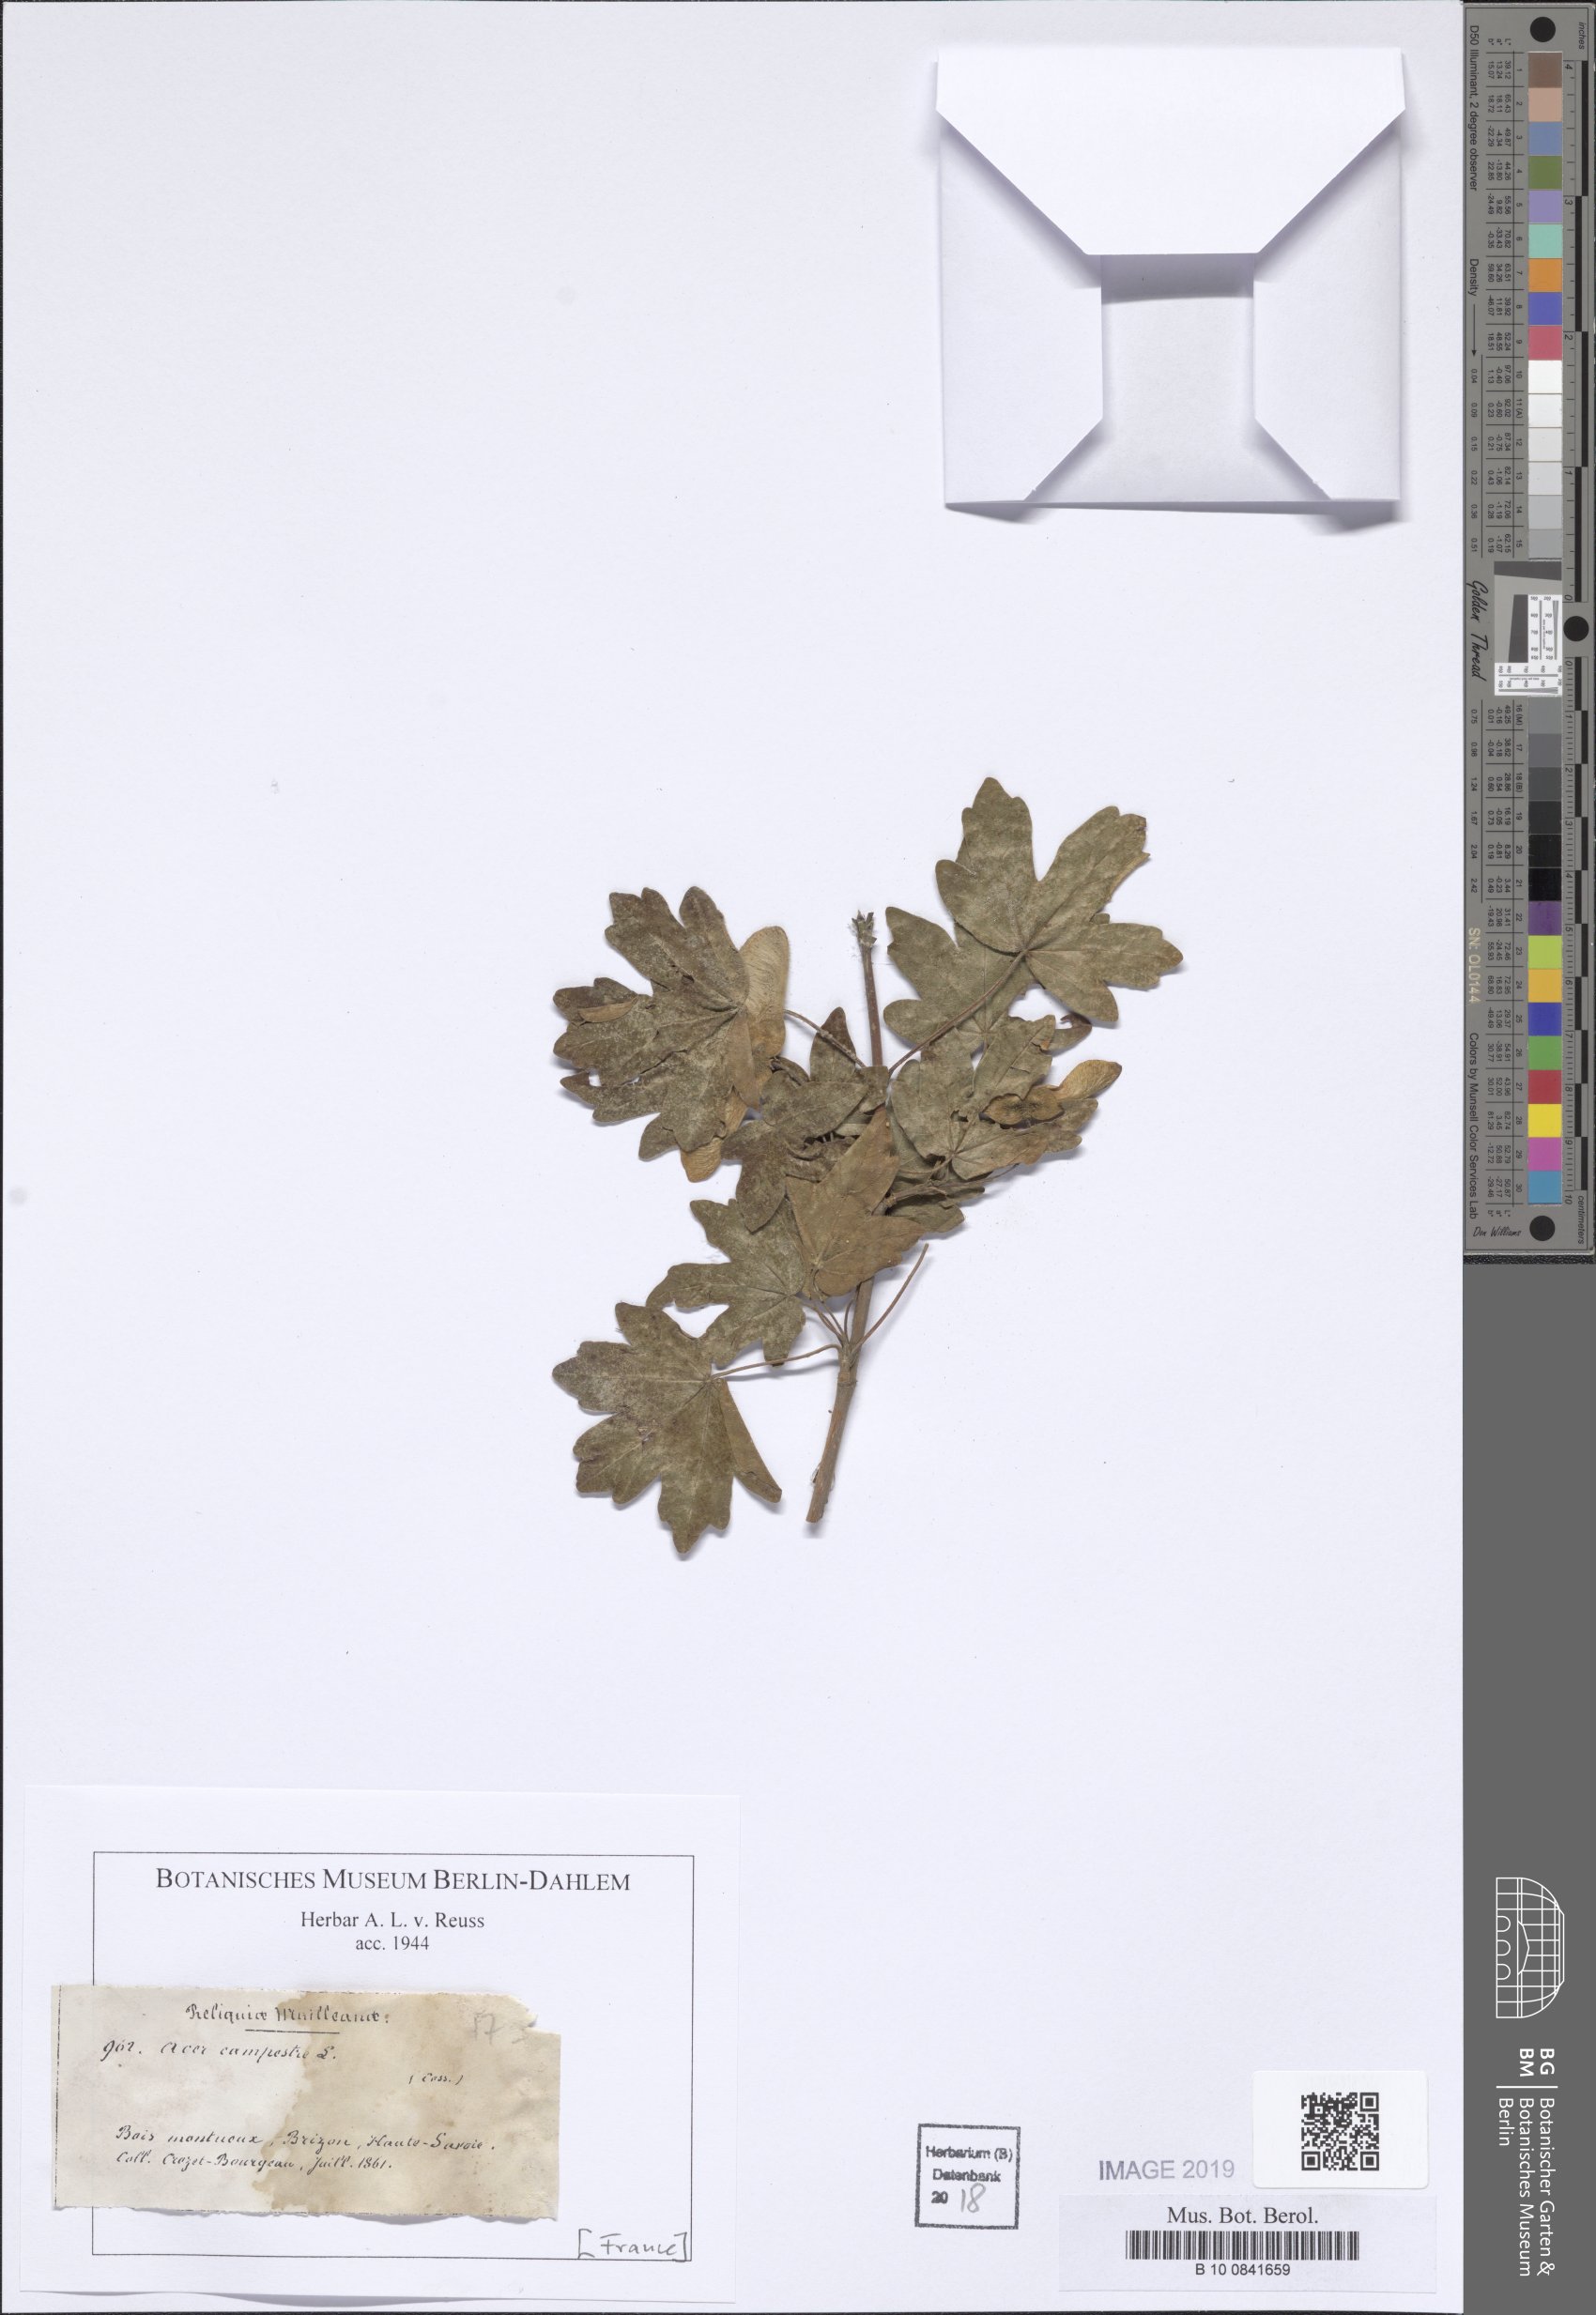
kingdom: Plantae
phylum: Tracheophyta
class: Magnoliopsida
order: Sapindales
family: Sapindaceae
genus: Acer
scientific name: Acer monspessulanum
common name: Montpellier maple
